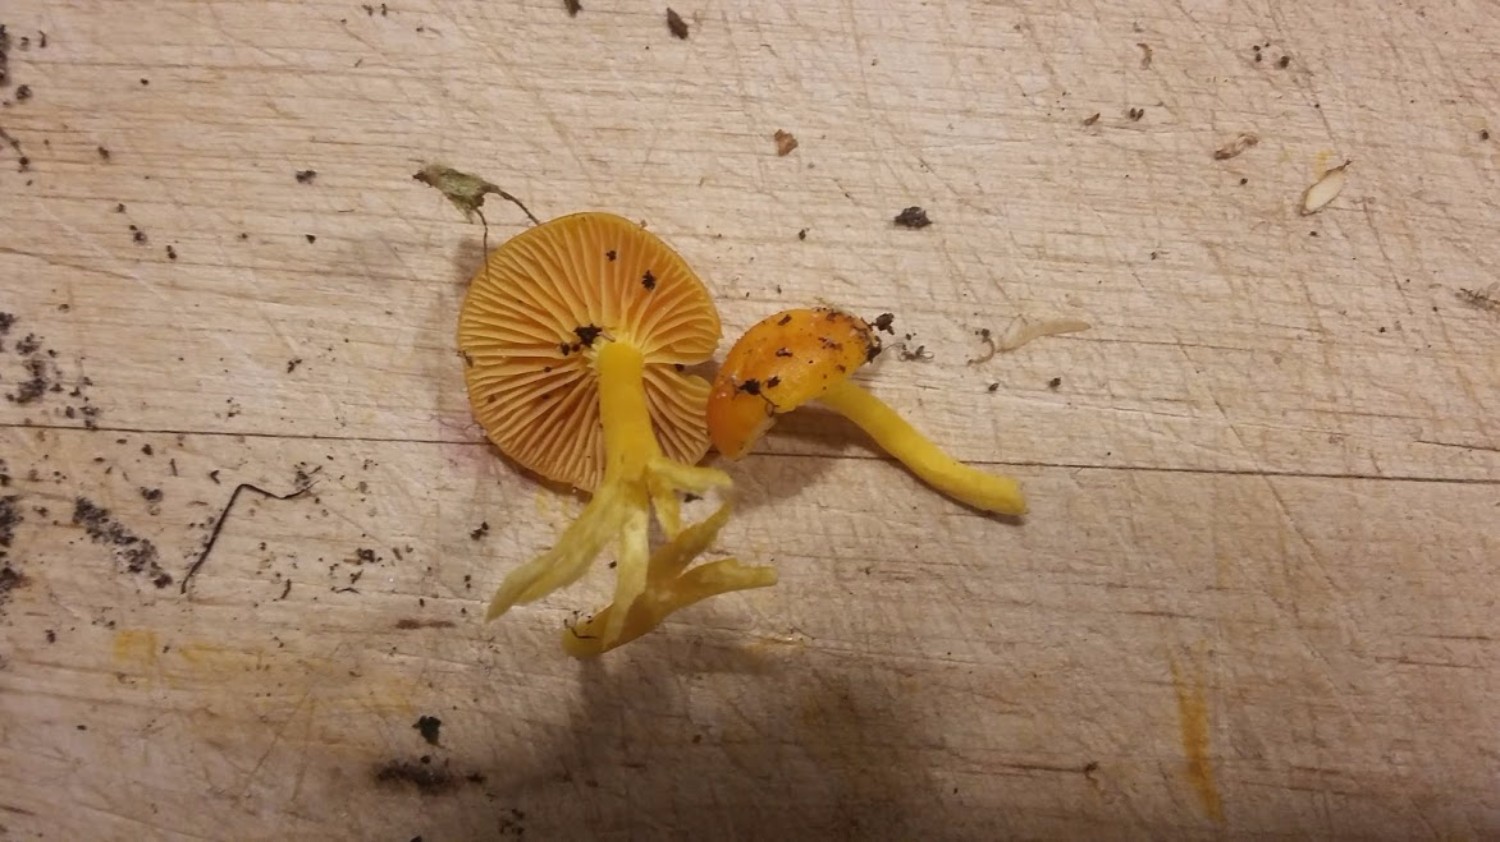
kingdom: Fungi
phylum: Basidiomycota
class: Agaricomycetes
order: Agaricales
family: Hygrophoraceae
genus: Hygrocybe
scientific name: Hygrocybe ceracea
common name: voksgul vokshat
